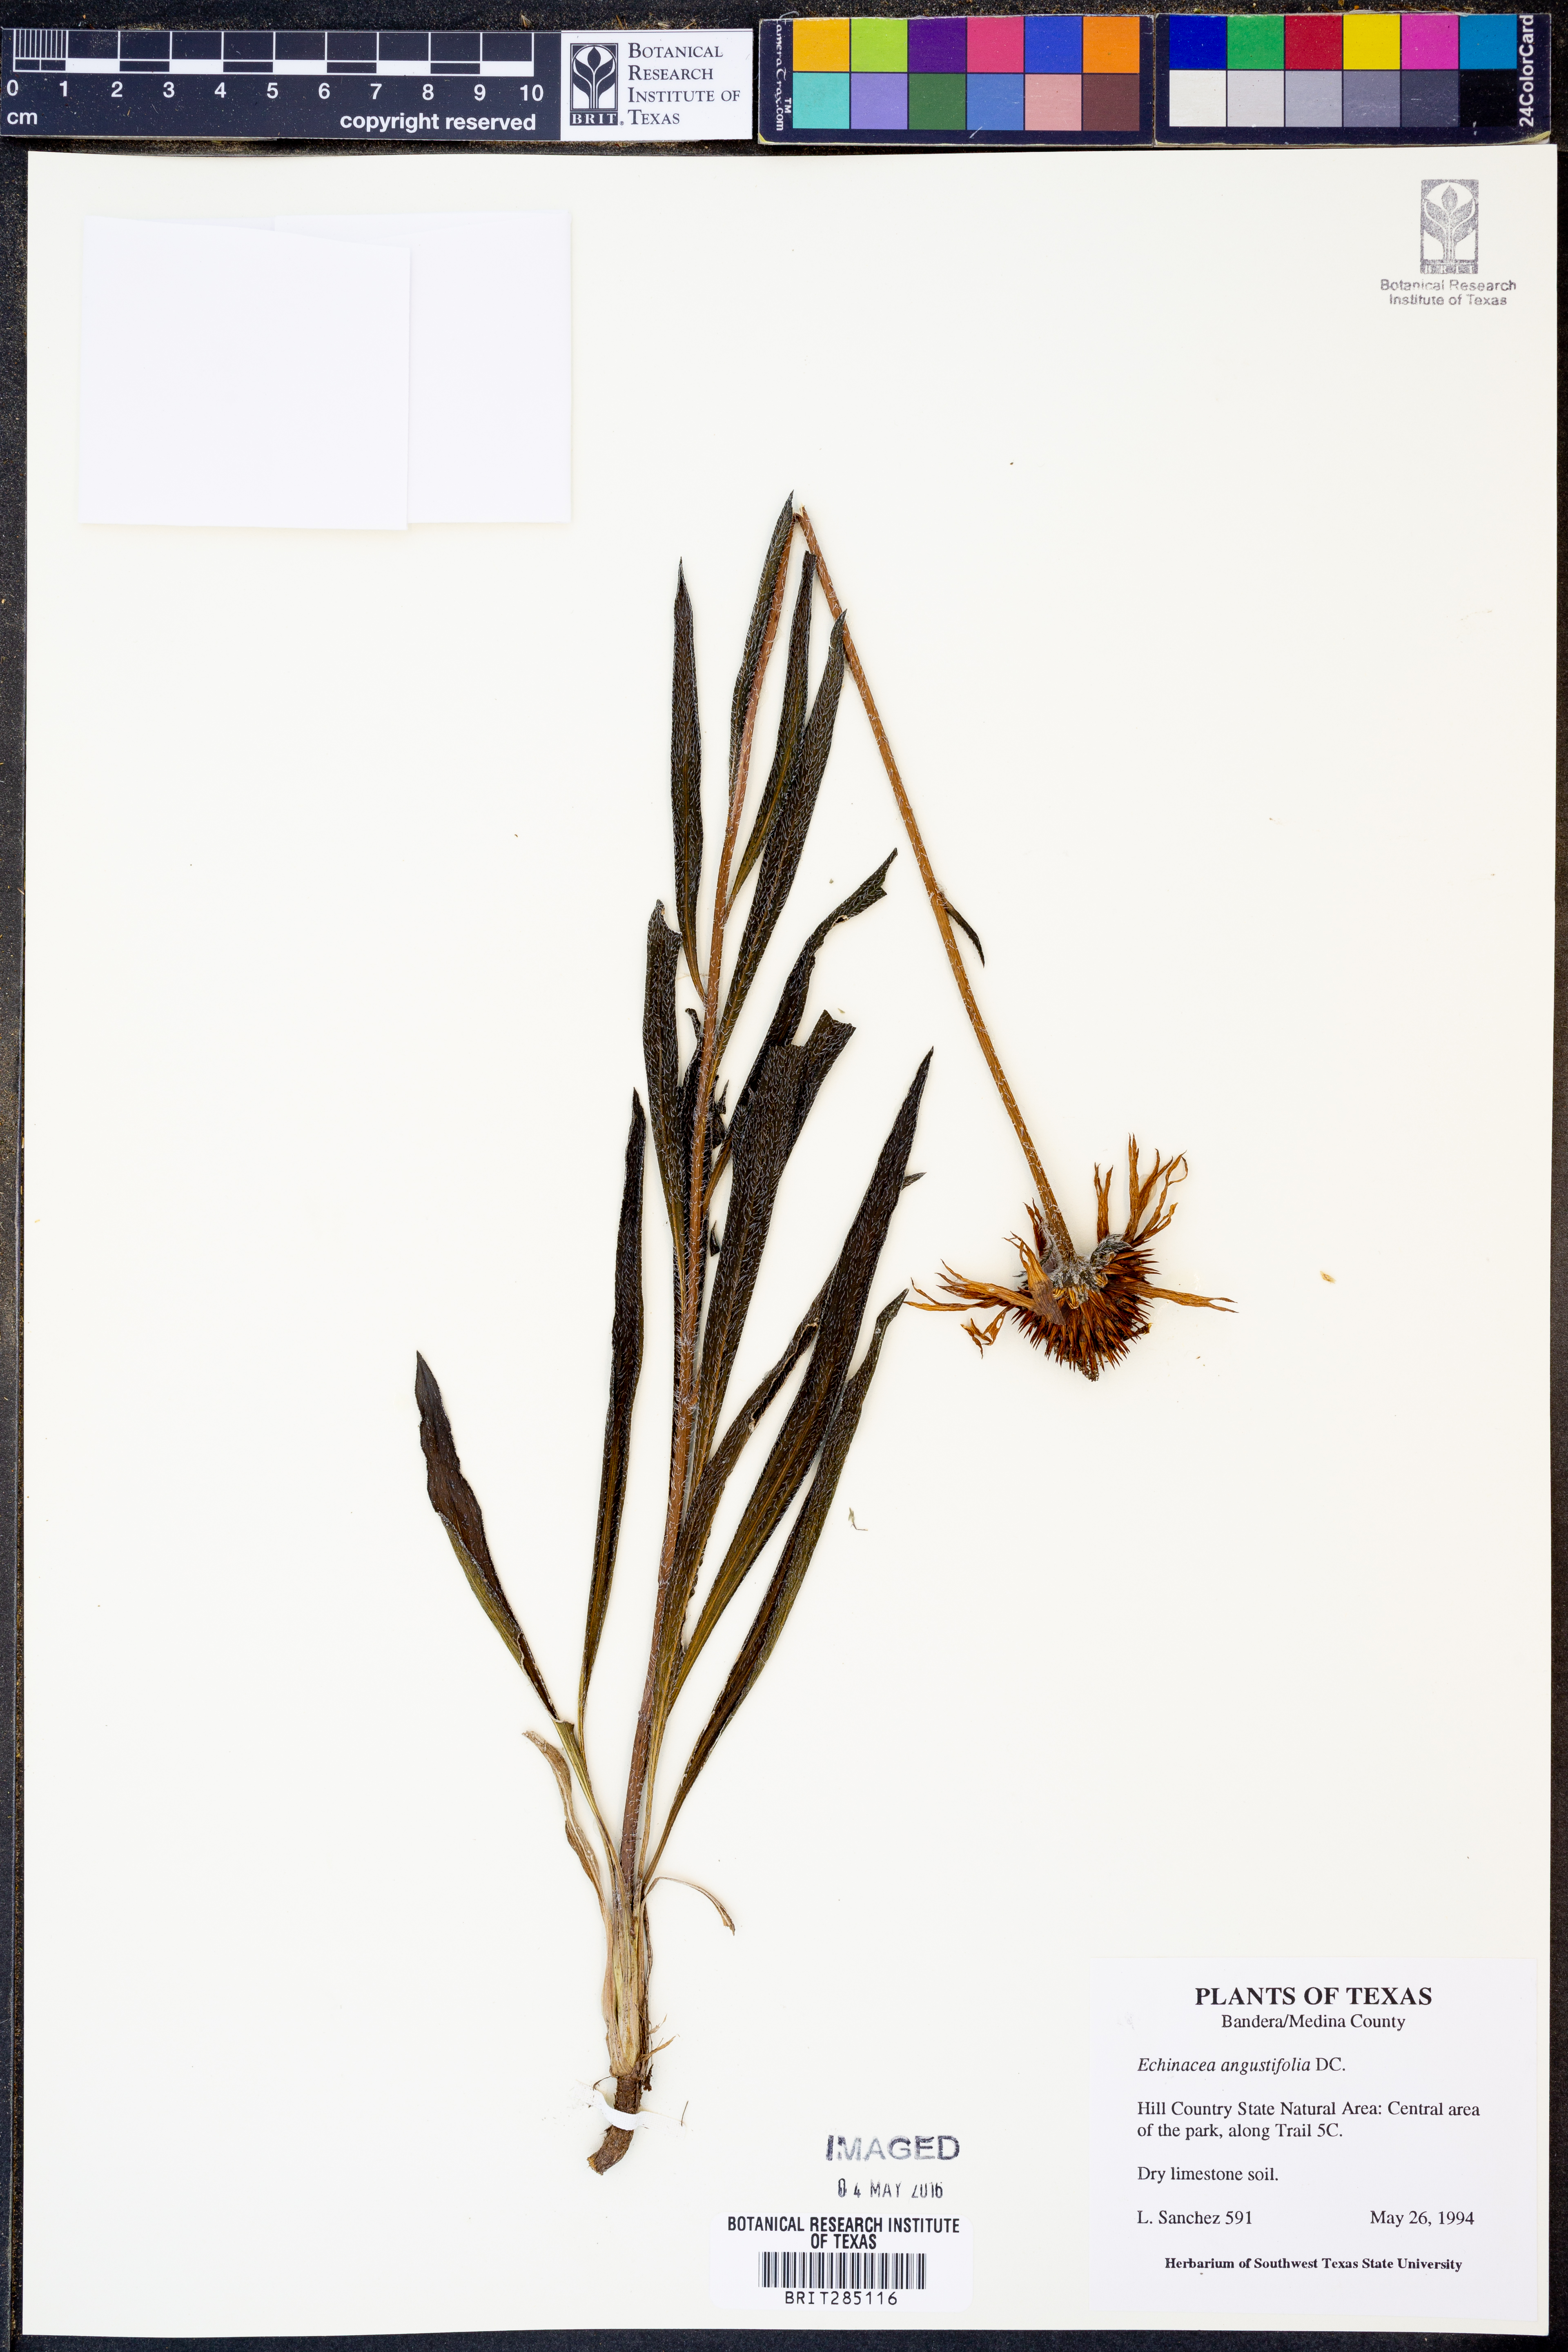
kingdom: Plantae
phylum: Tracheophyta
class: Magnoliopsida
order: Asterales
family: Asteraceae
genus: Echinacea
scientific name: Echinacea angustifolia
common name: Black-sampson echinacea
